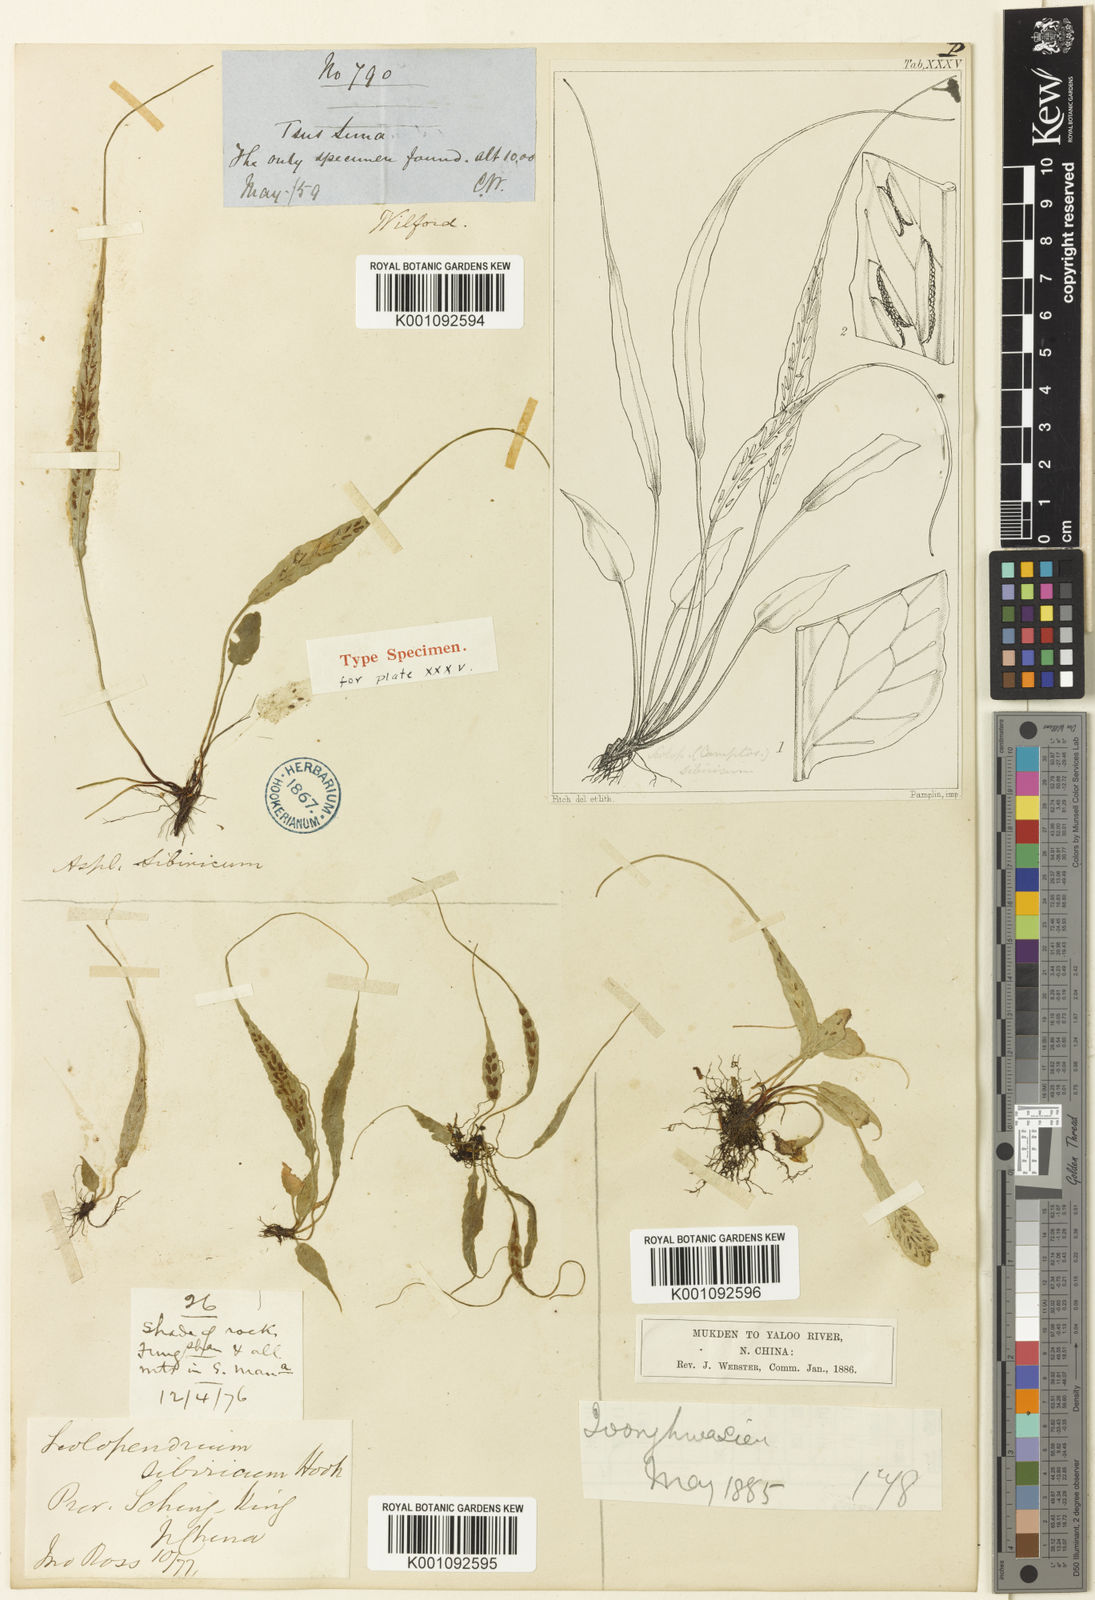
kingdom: Plantae
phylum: Tracheophyta
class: Polypodiopsida
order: Polypodiales
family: Aspleniaceae
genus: Asplenium
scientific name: Asplenium ruprechtii
